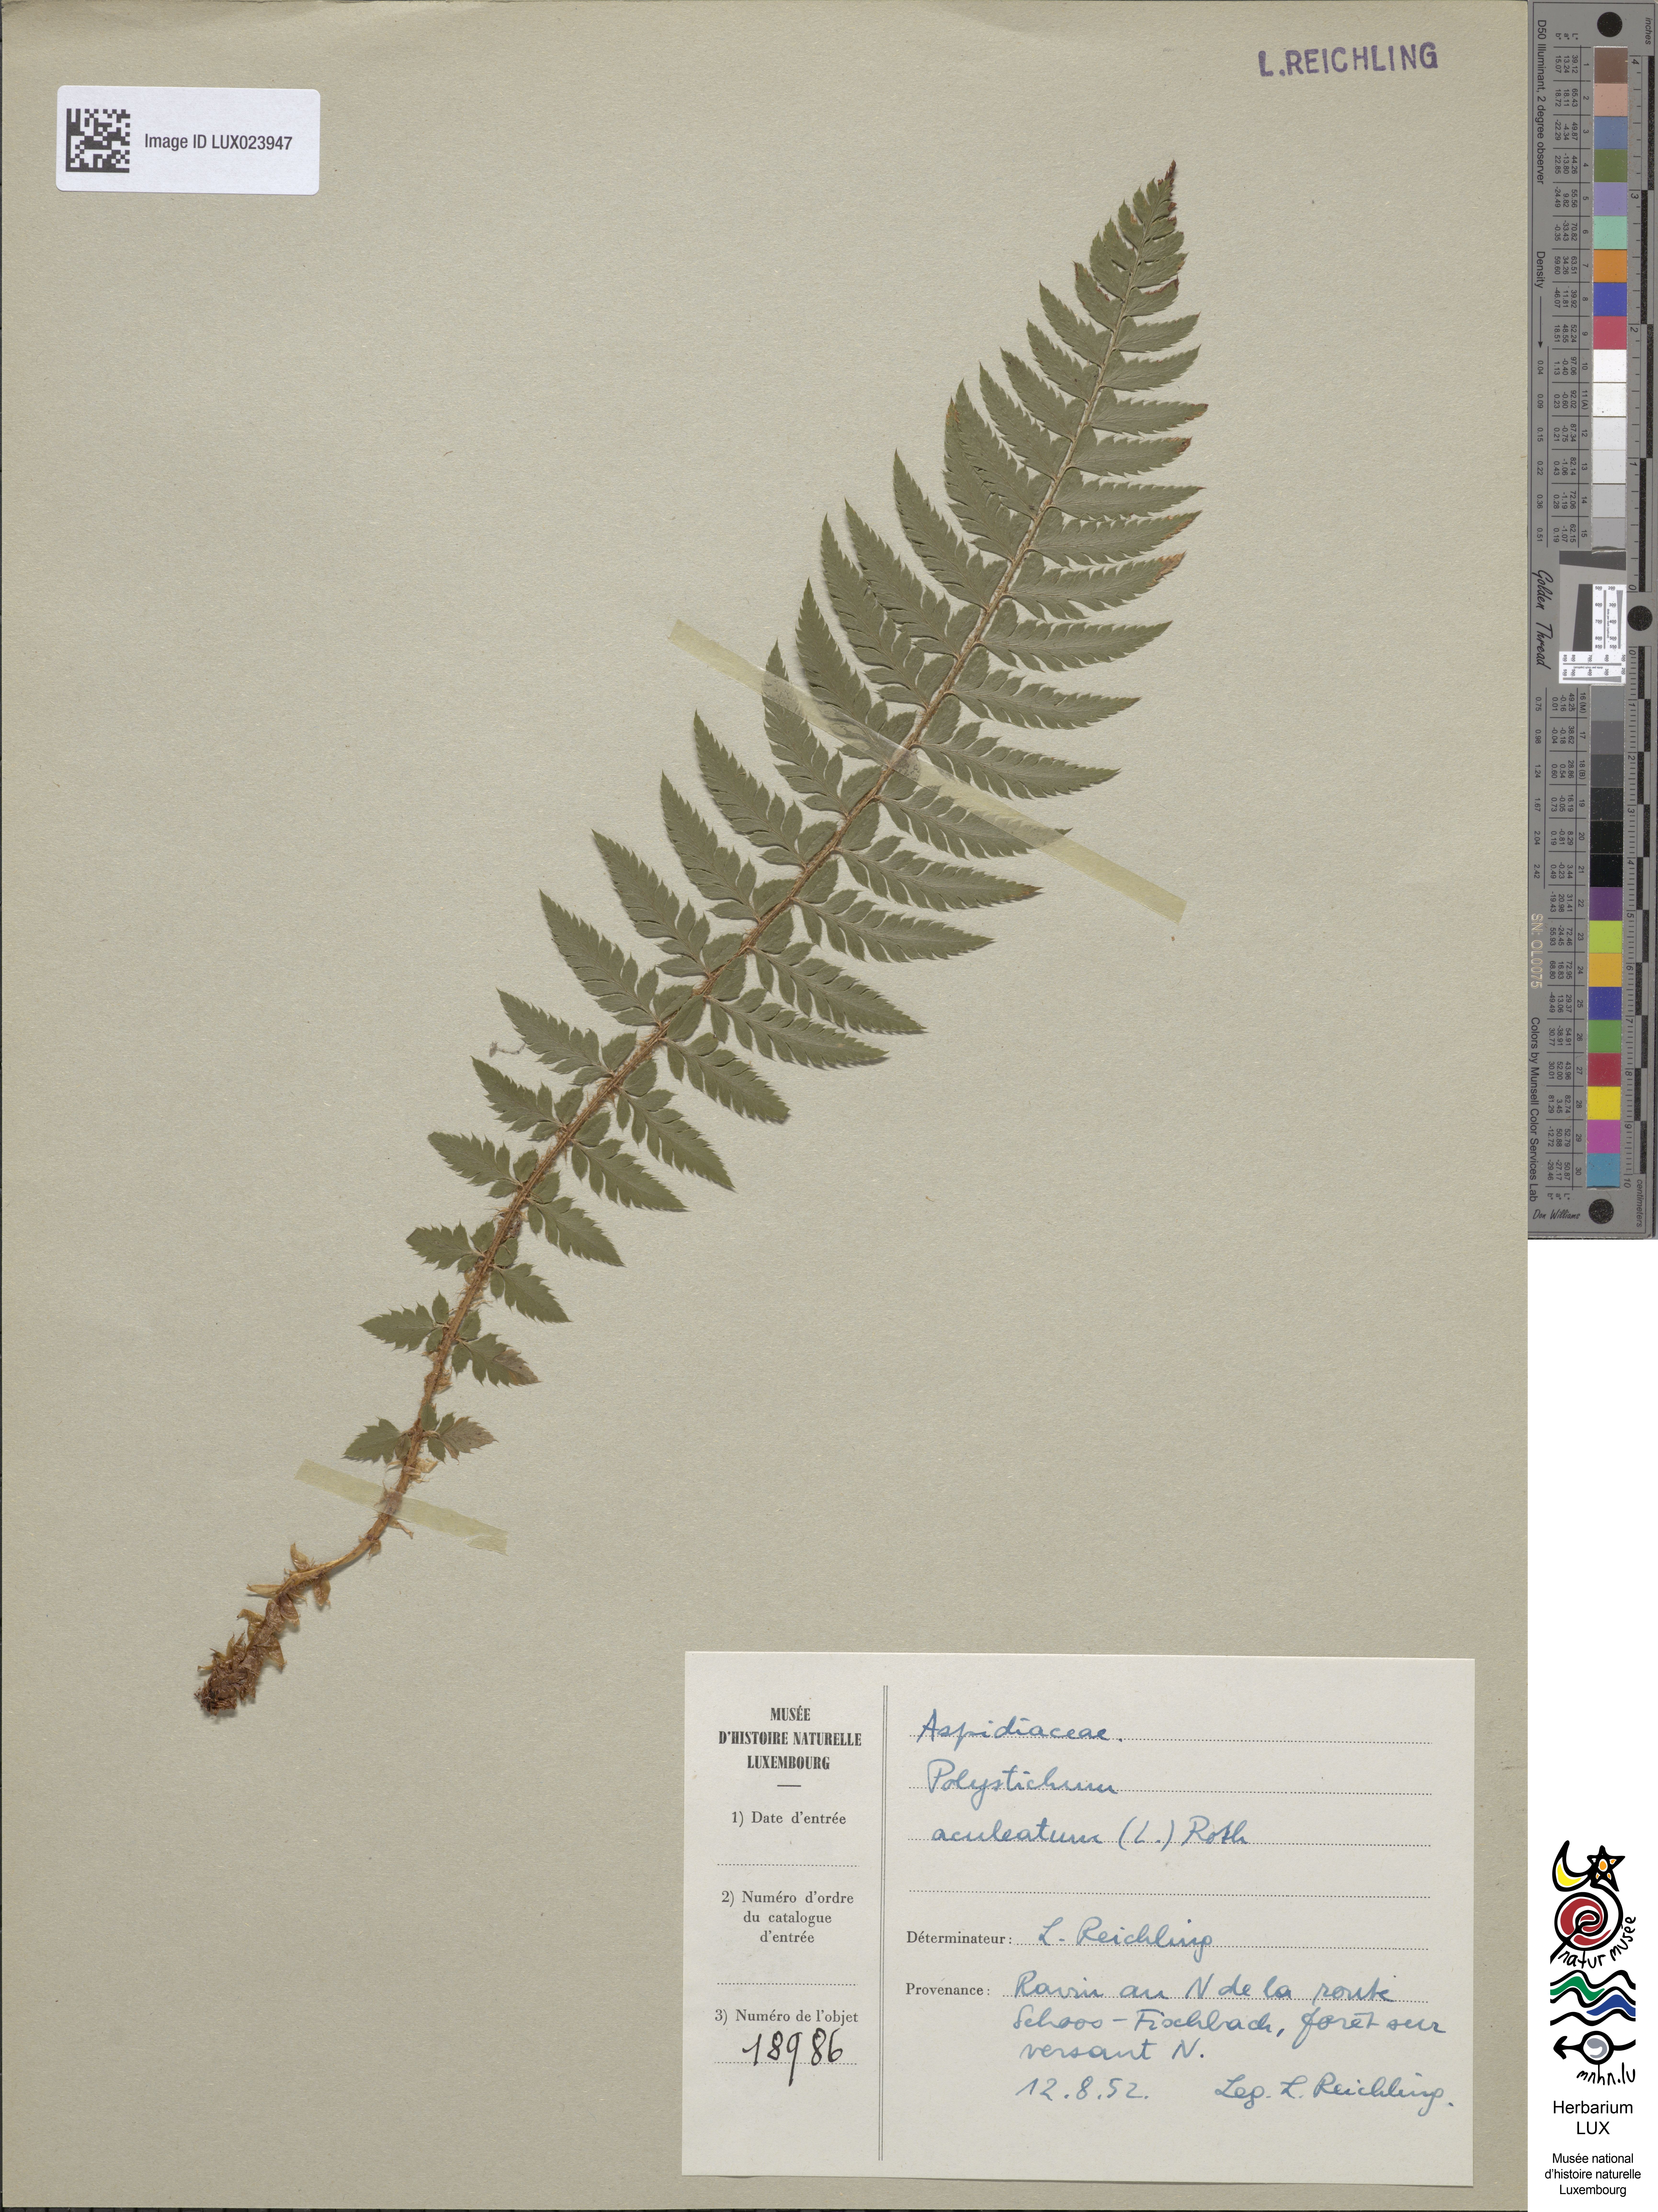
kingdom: Plantae
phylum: Tracheophyta
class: Polypodiopsida
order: Polypodiales
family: Dryopteridaceae
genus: Polystichum
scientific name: Polystichum aculeatum
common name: Hard shield-fern
